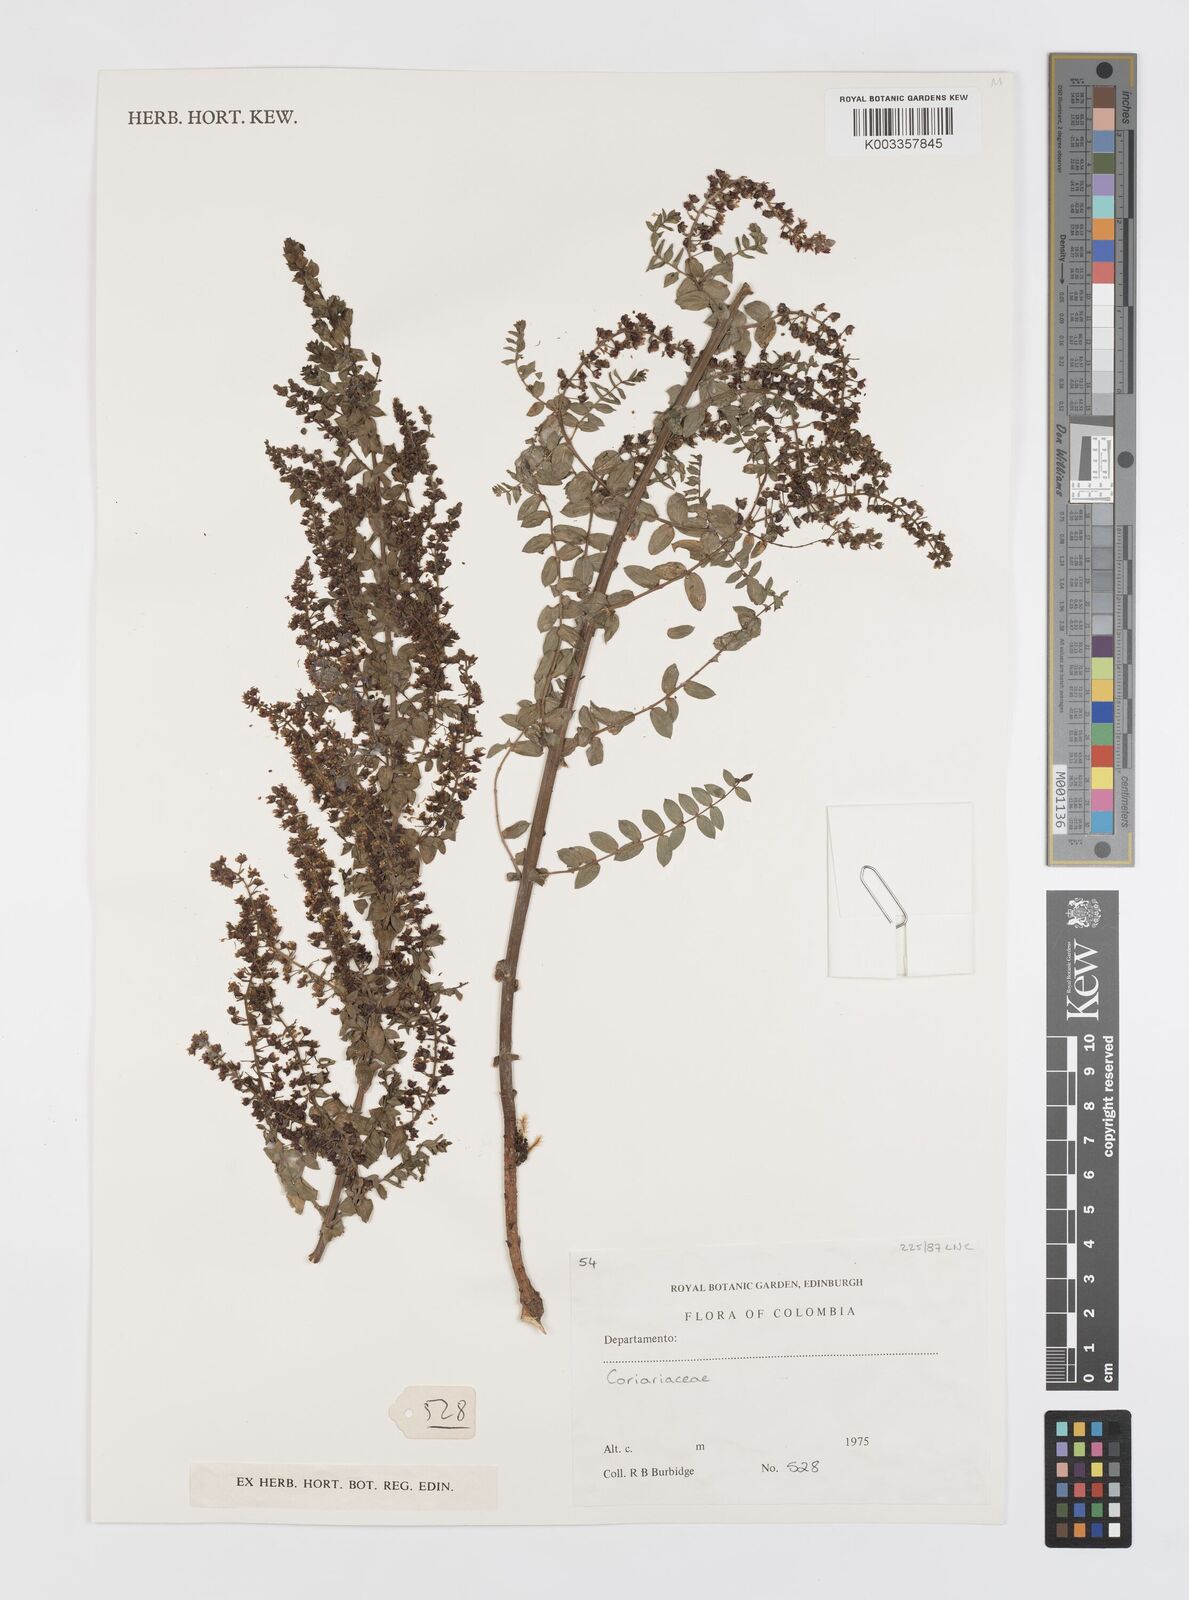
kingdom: Plantae
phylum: Tracheophyta
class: Magnoliopsida
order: Cucurbitales
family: Coriariaceae
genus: Coriaria
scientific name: Coriaria microphylla
